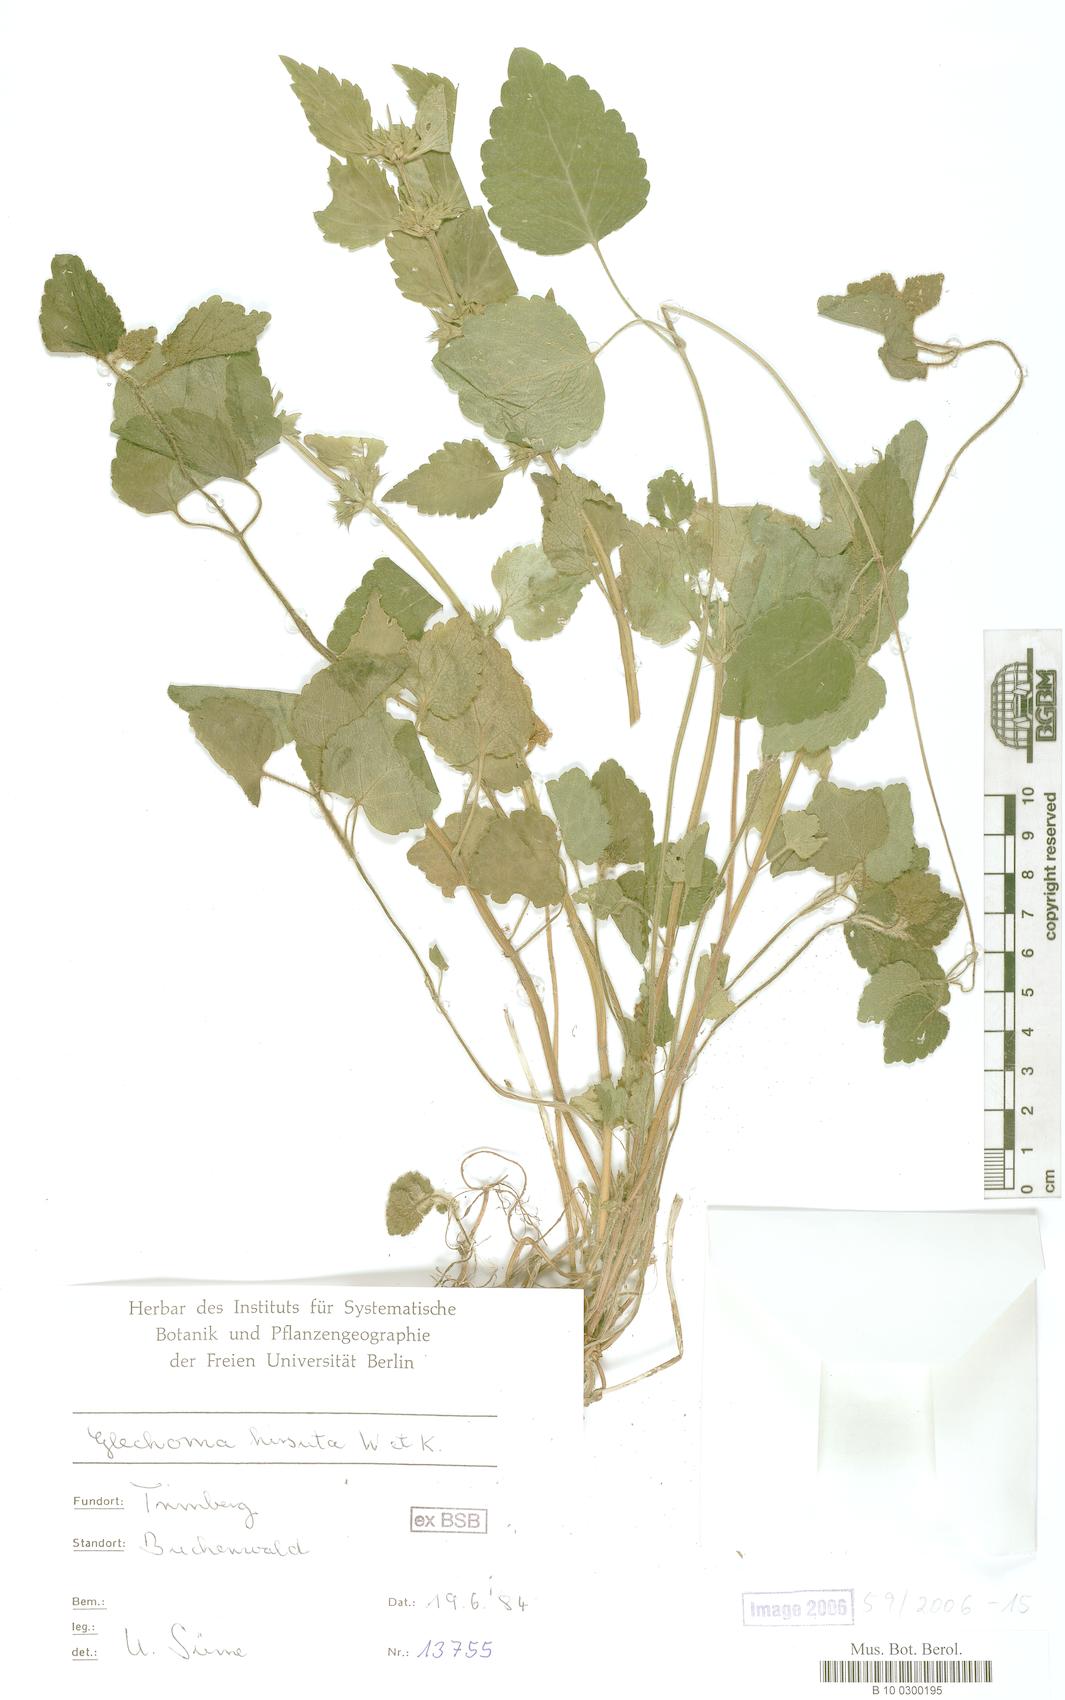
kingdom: Plantae
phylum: Tracheophyta
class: Magnoliopsida
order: Lamiales
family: Lamiaceae
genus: Glechoma
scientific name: Glechoma hirsuta
